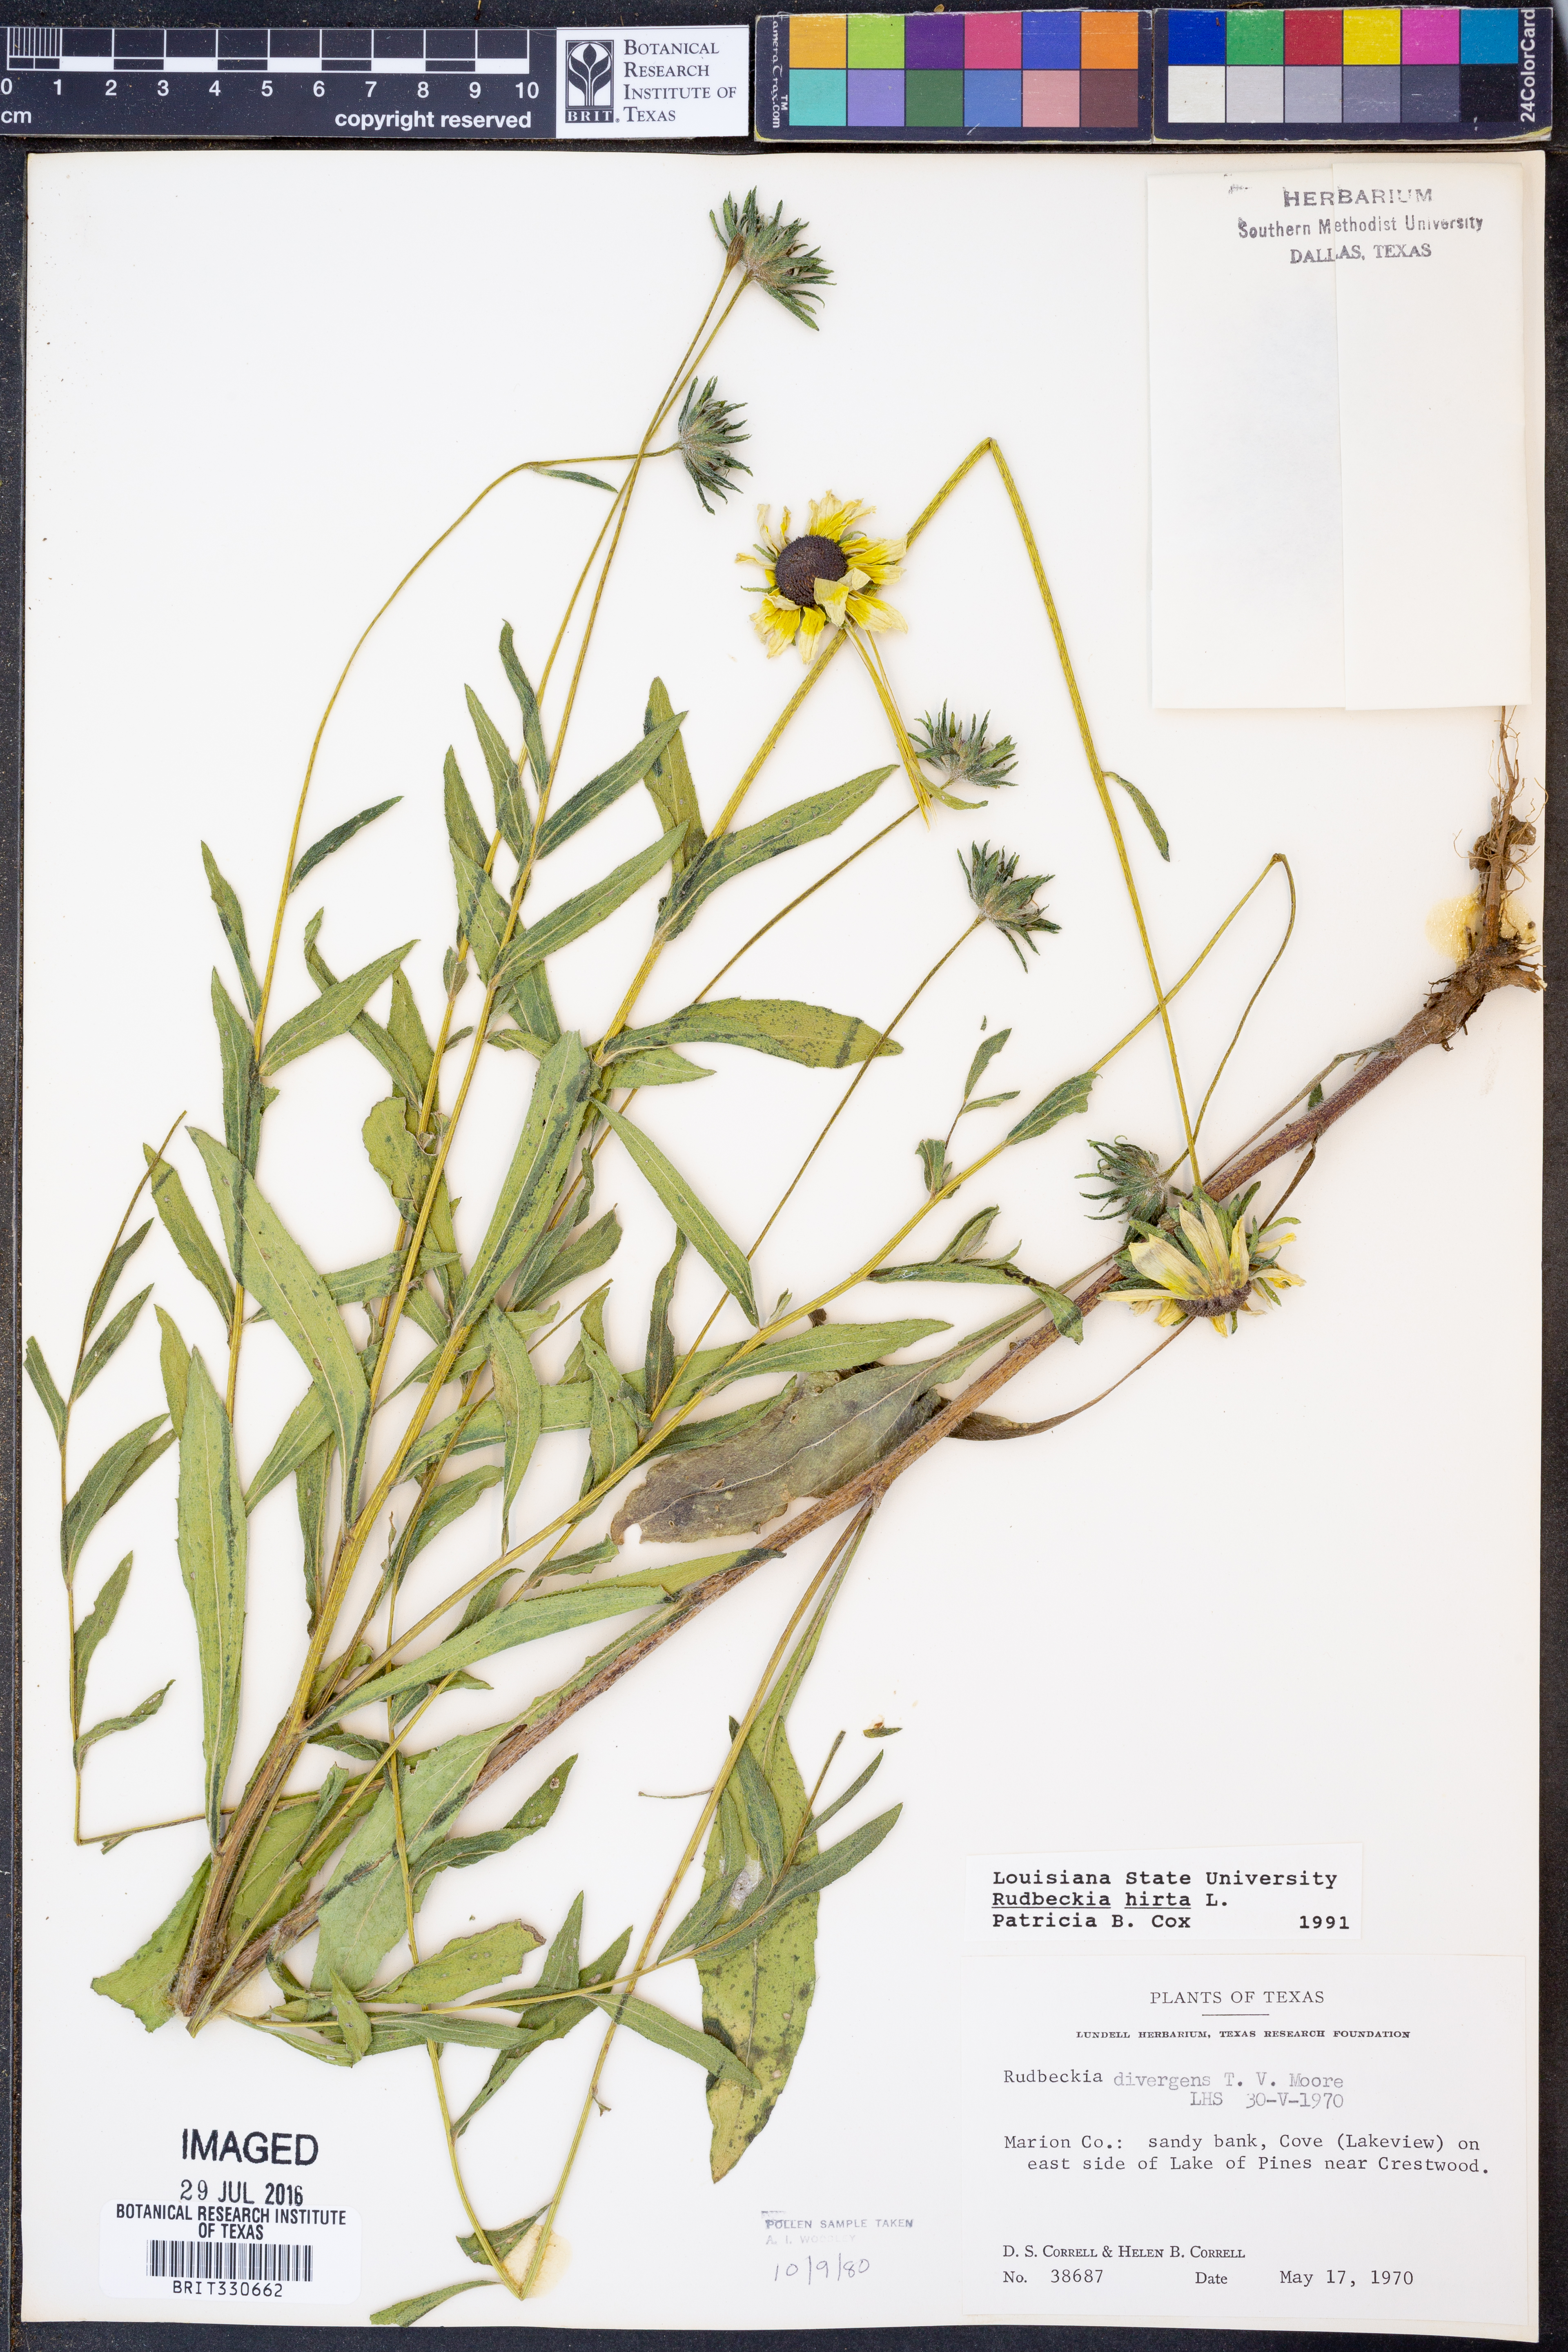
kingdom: Plantae
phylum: Tracheophyta
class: Magnoliopsida
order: Asterales
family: Asteraceae
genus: Rudbeckia
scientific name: Rudbeckia hirta
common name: Black-eyed-susan
